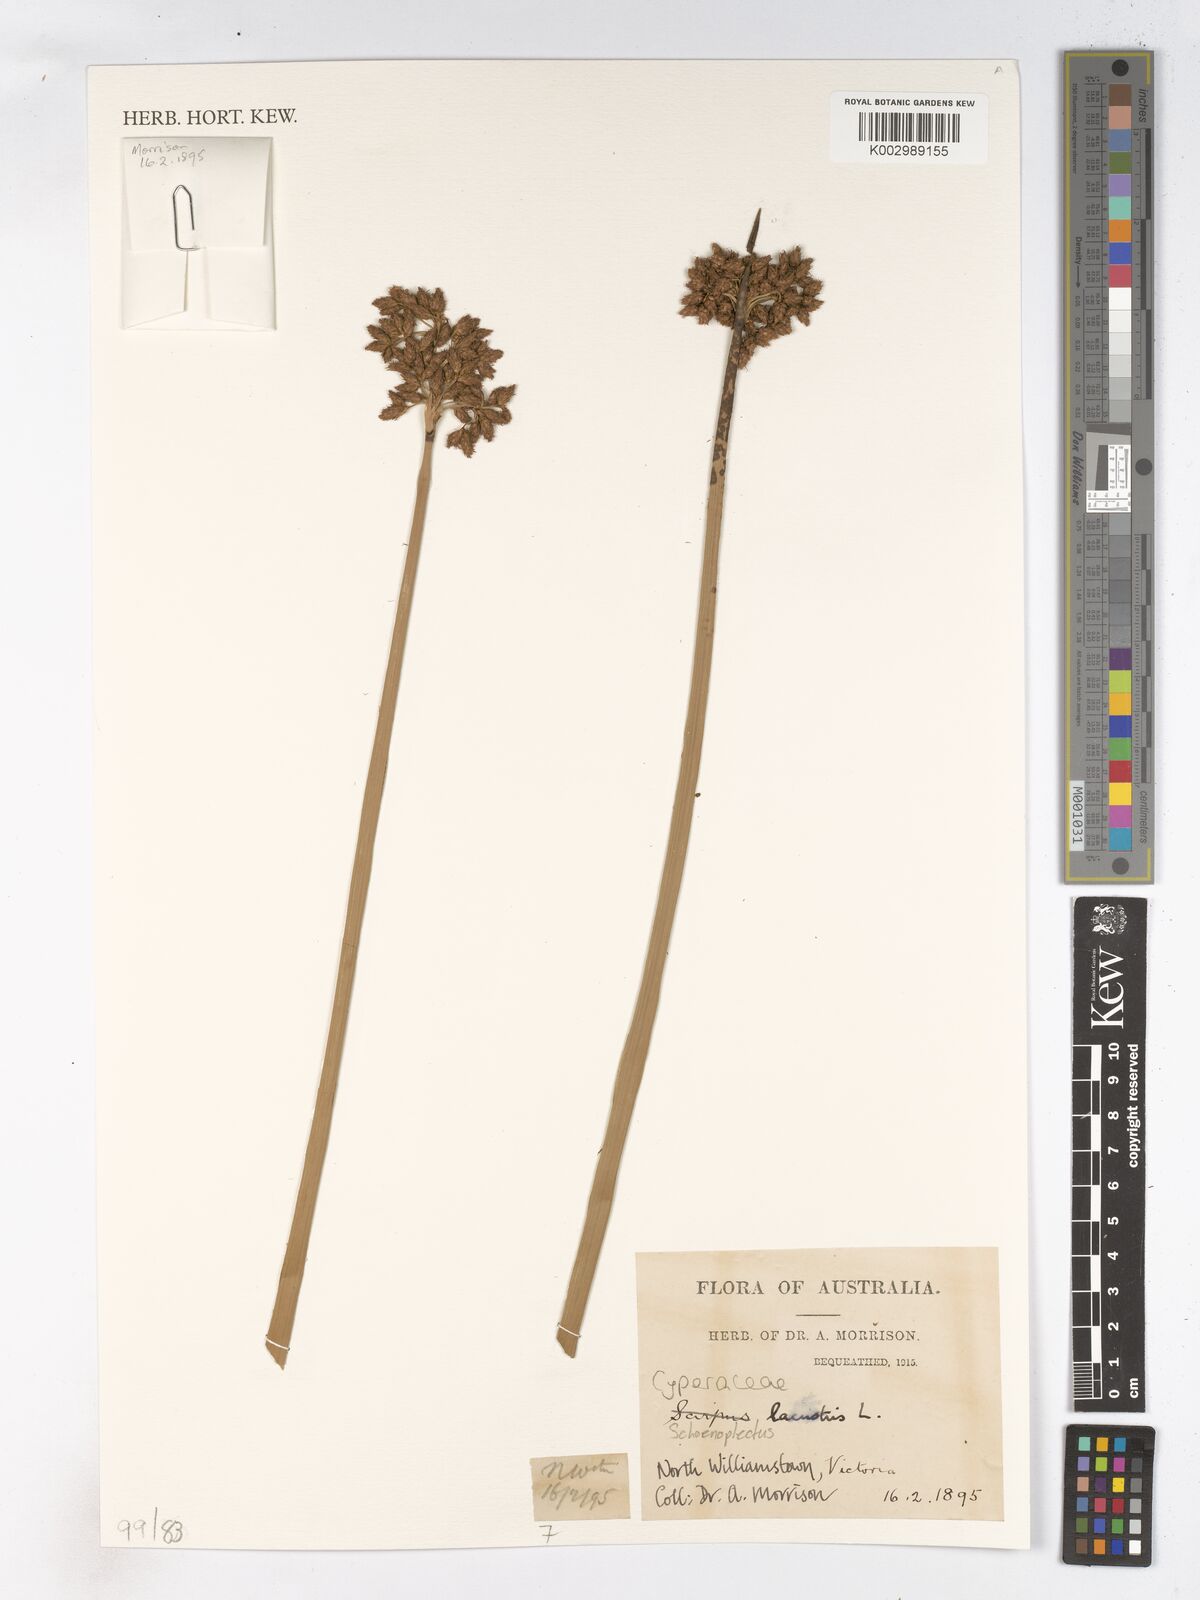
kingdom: Plantae
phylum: Tracheophyta
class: Liliopsida
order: Poales
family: Cyperaceae
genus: Schoenoplectiella
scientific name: Schoenoplectiella juncoides
